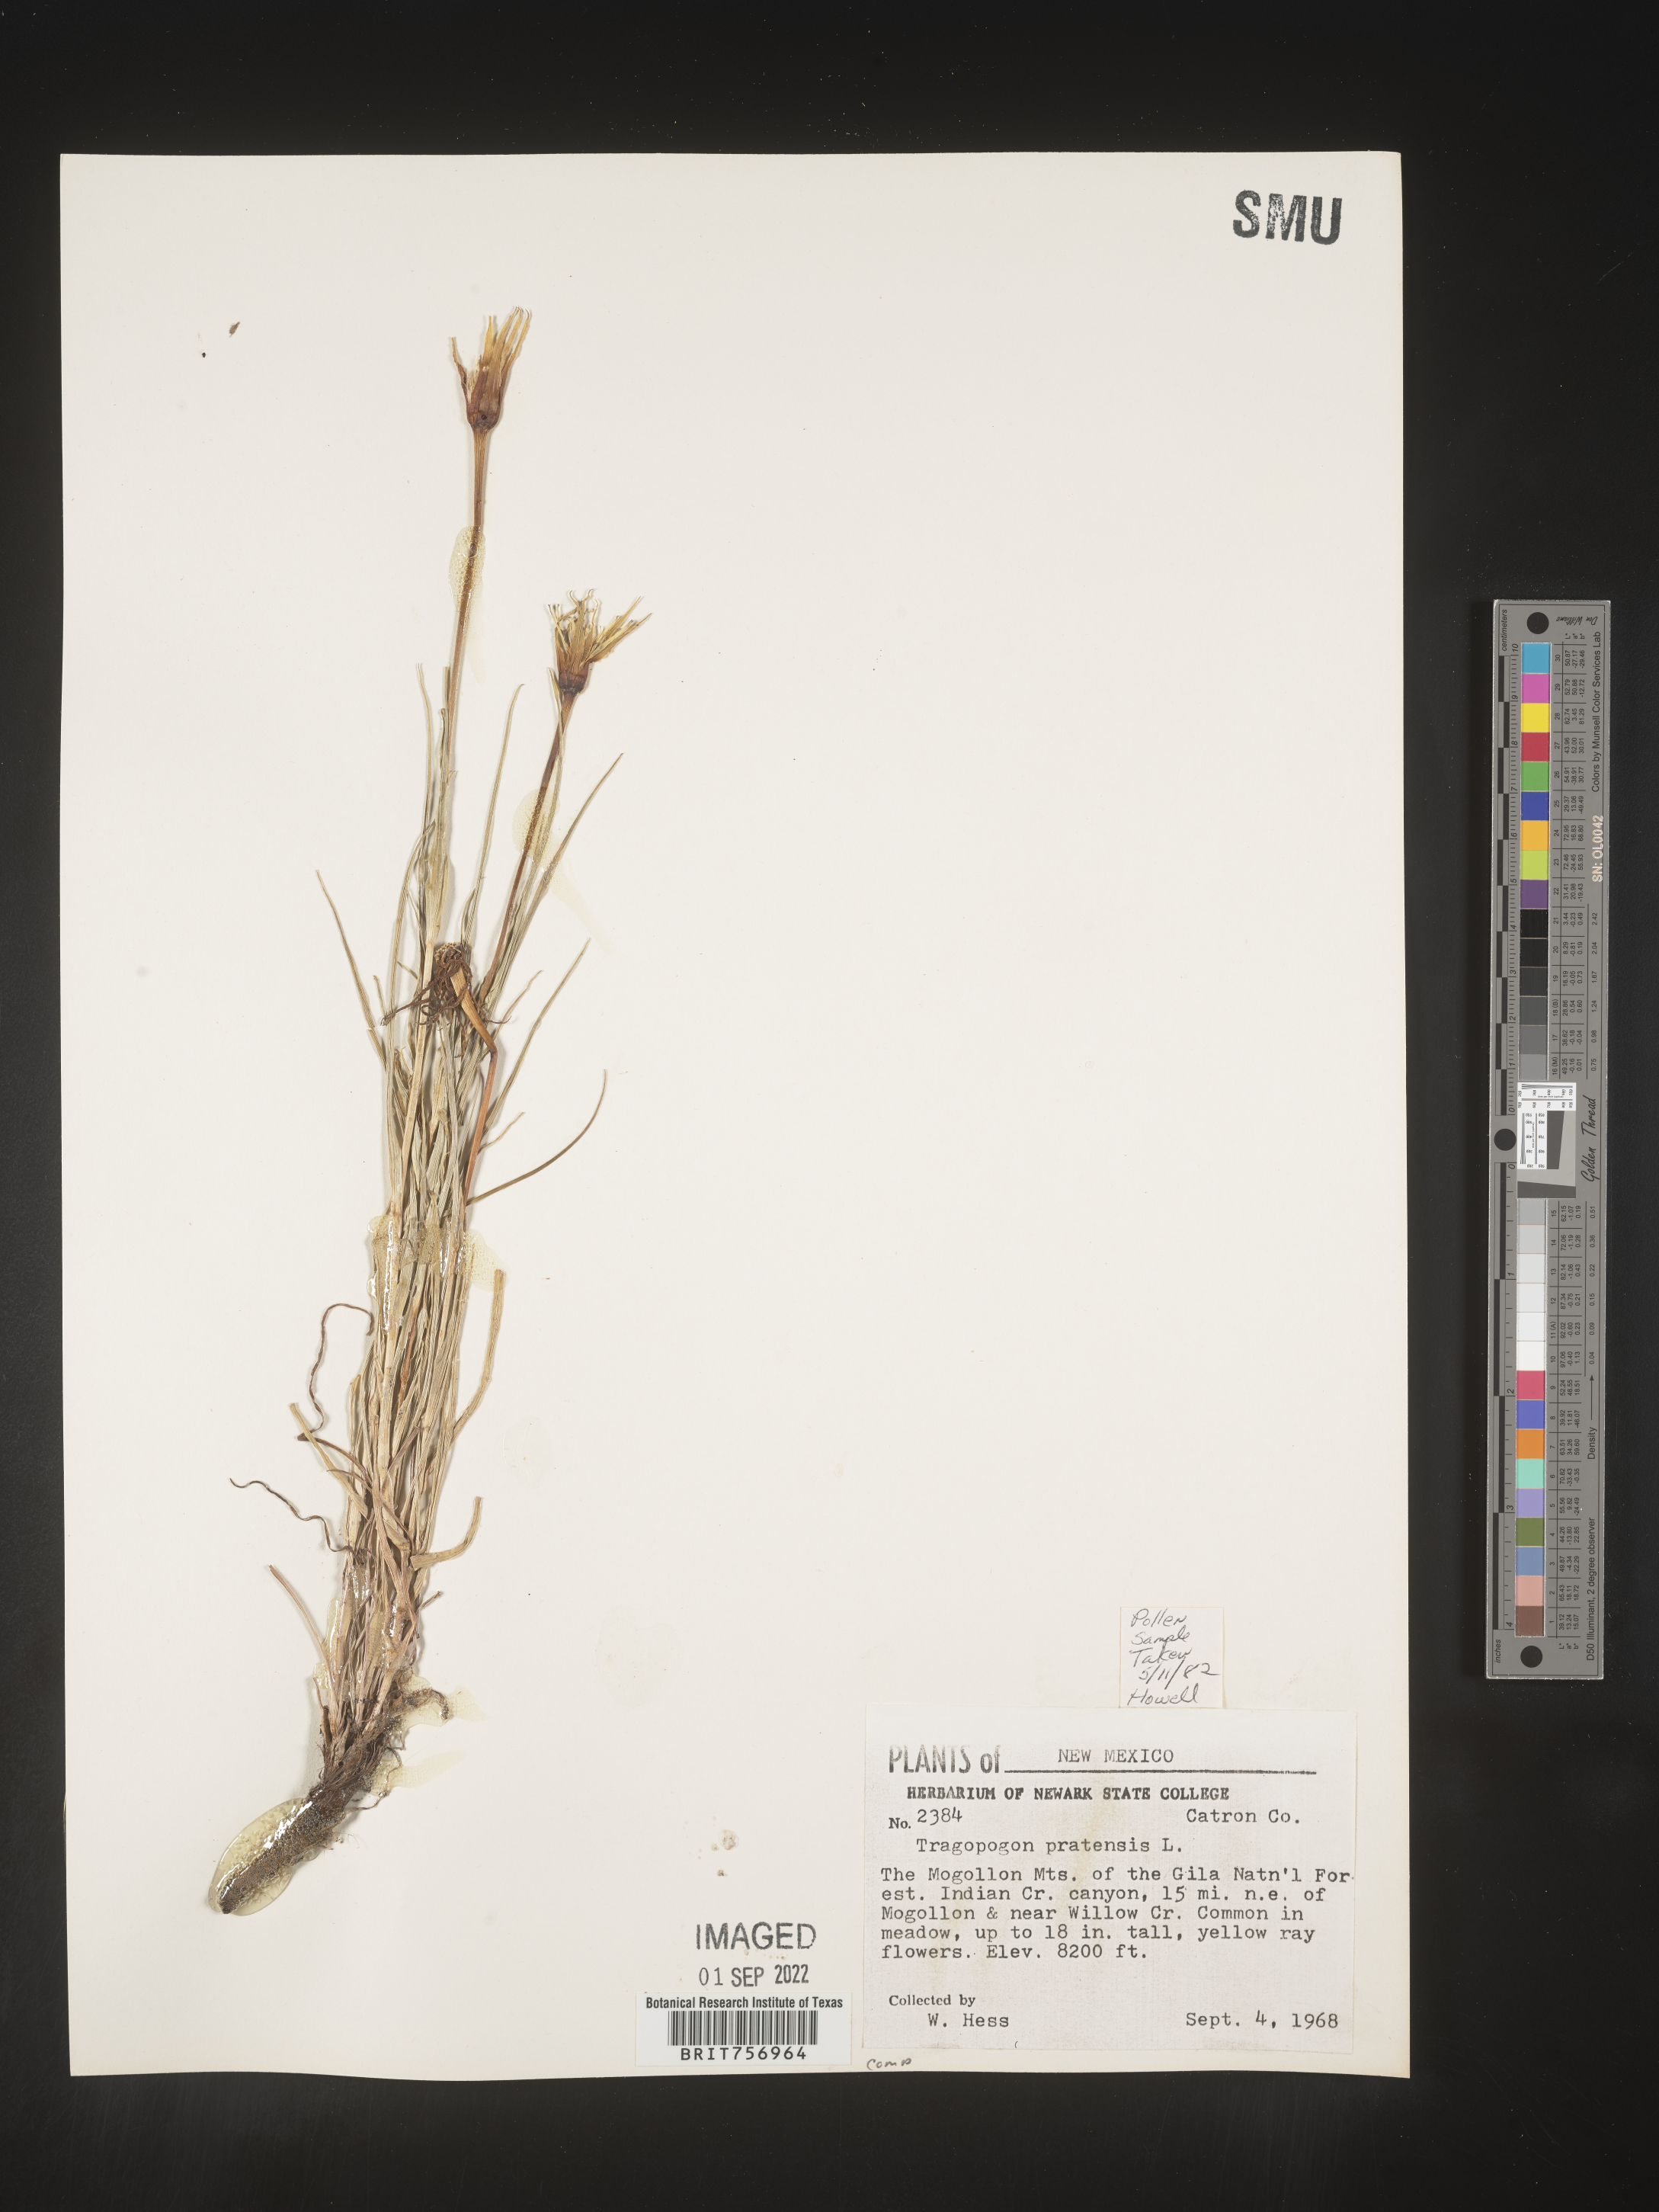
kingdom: Plantae
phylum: Tracheophyta
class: Magnoliopsida
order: Asterales
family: Asteraceae
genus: Tragopogon
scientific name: Tragopogon pratensis
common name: Goat's-beard
